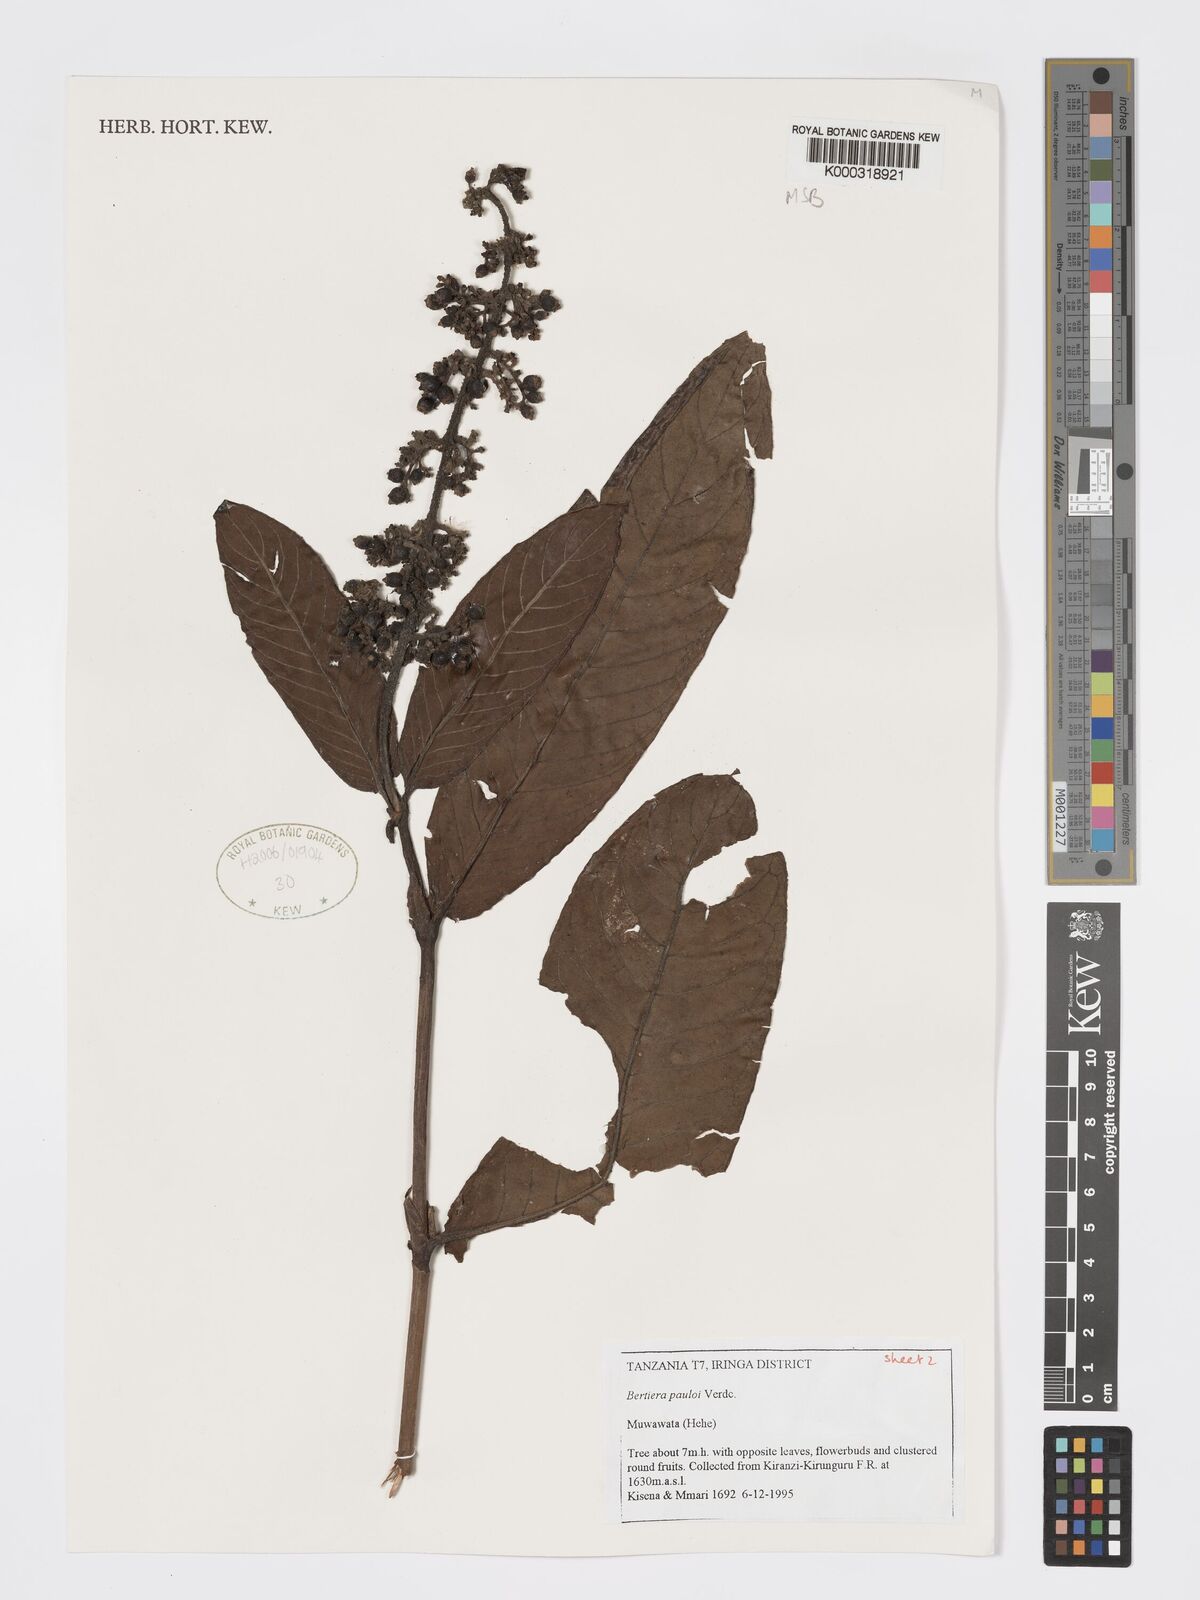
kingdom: Plantae
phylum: Tracheophyta
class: Magnoliopsida
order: Gentianales
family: Rubiaceae
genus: Bertiera
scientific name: Bertiera pauloi
